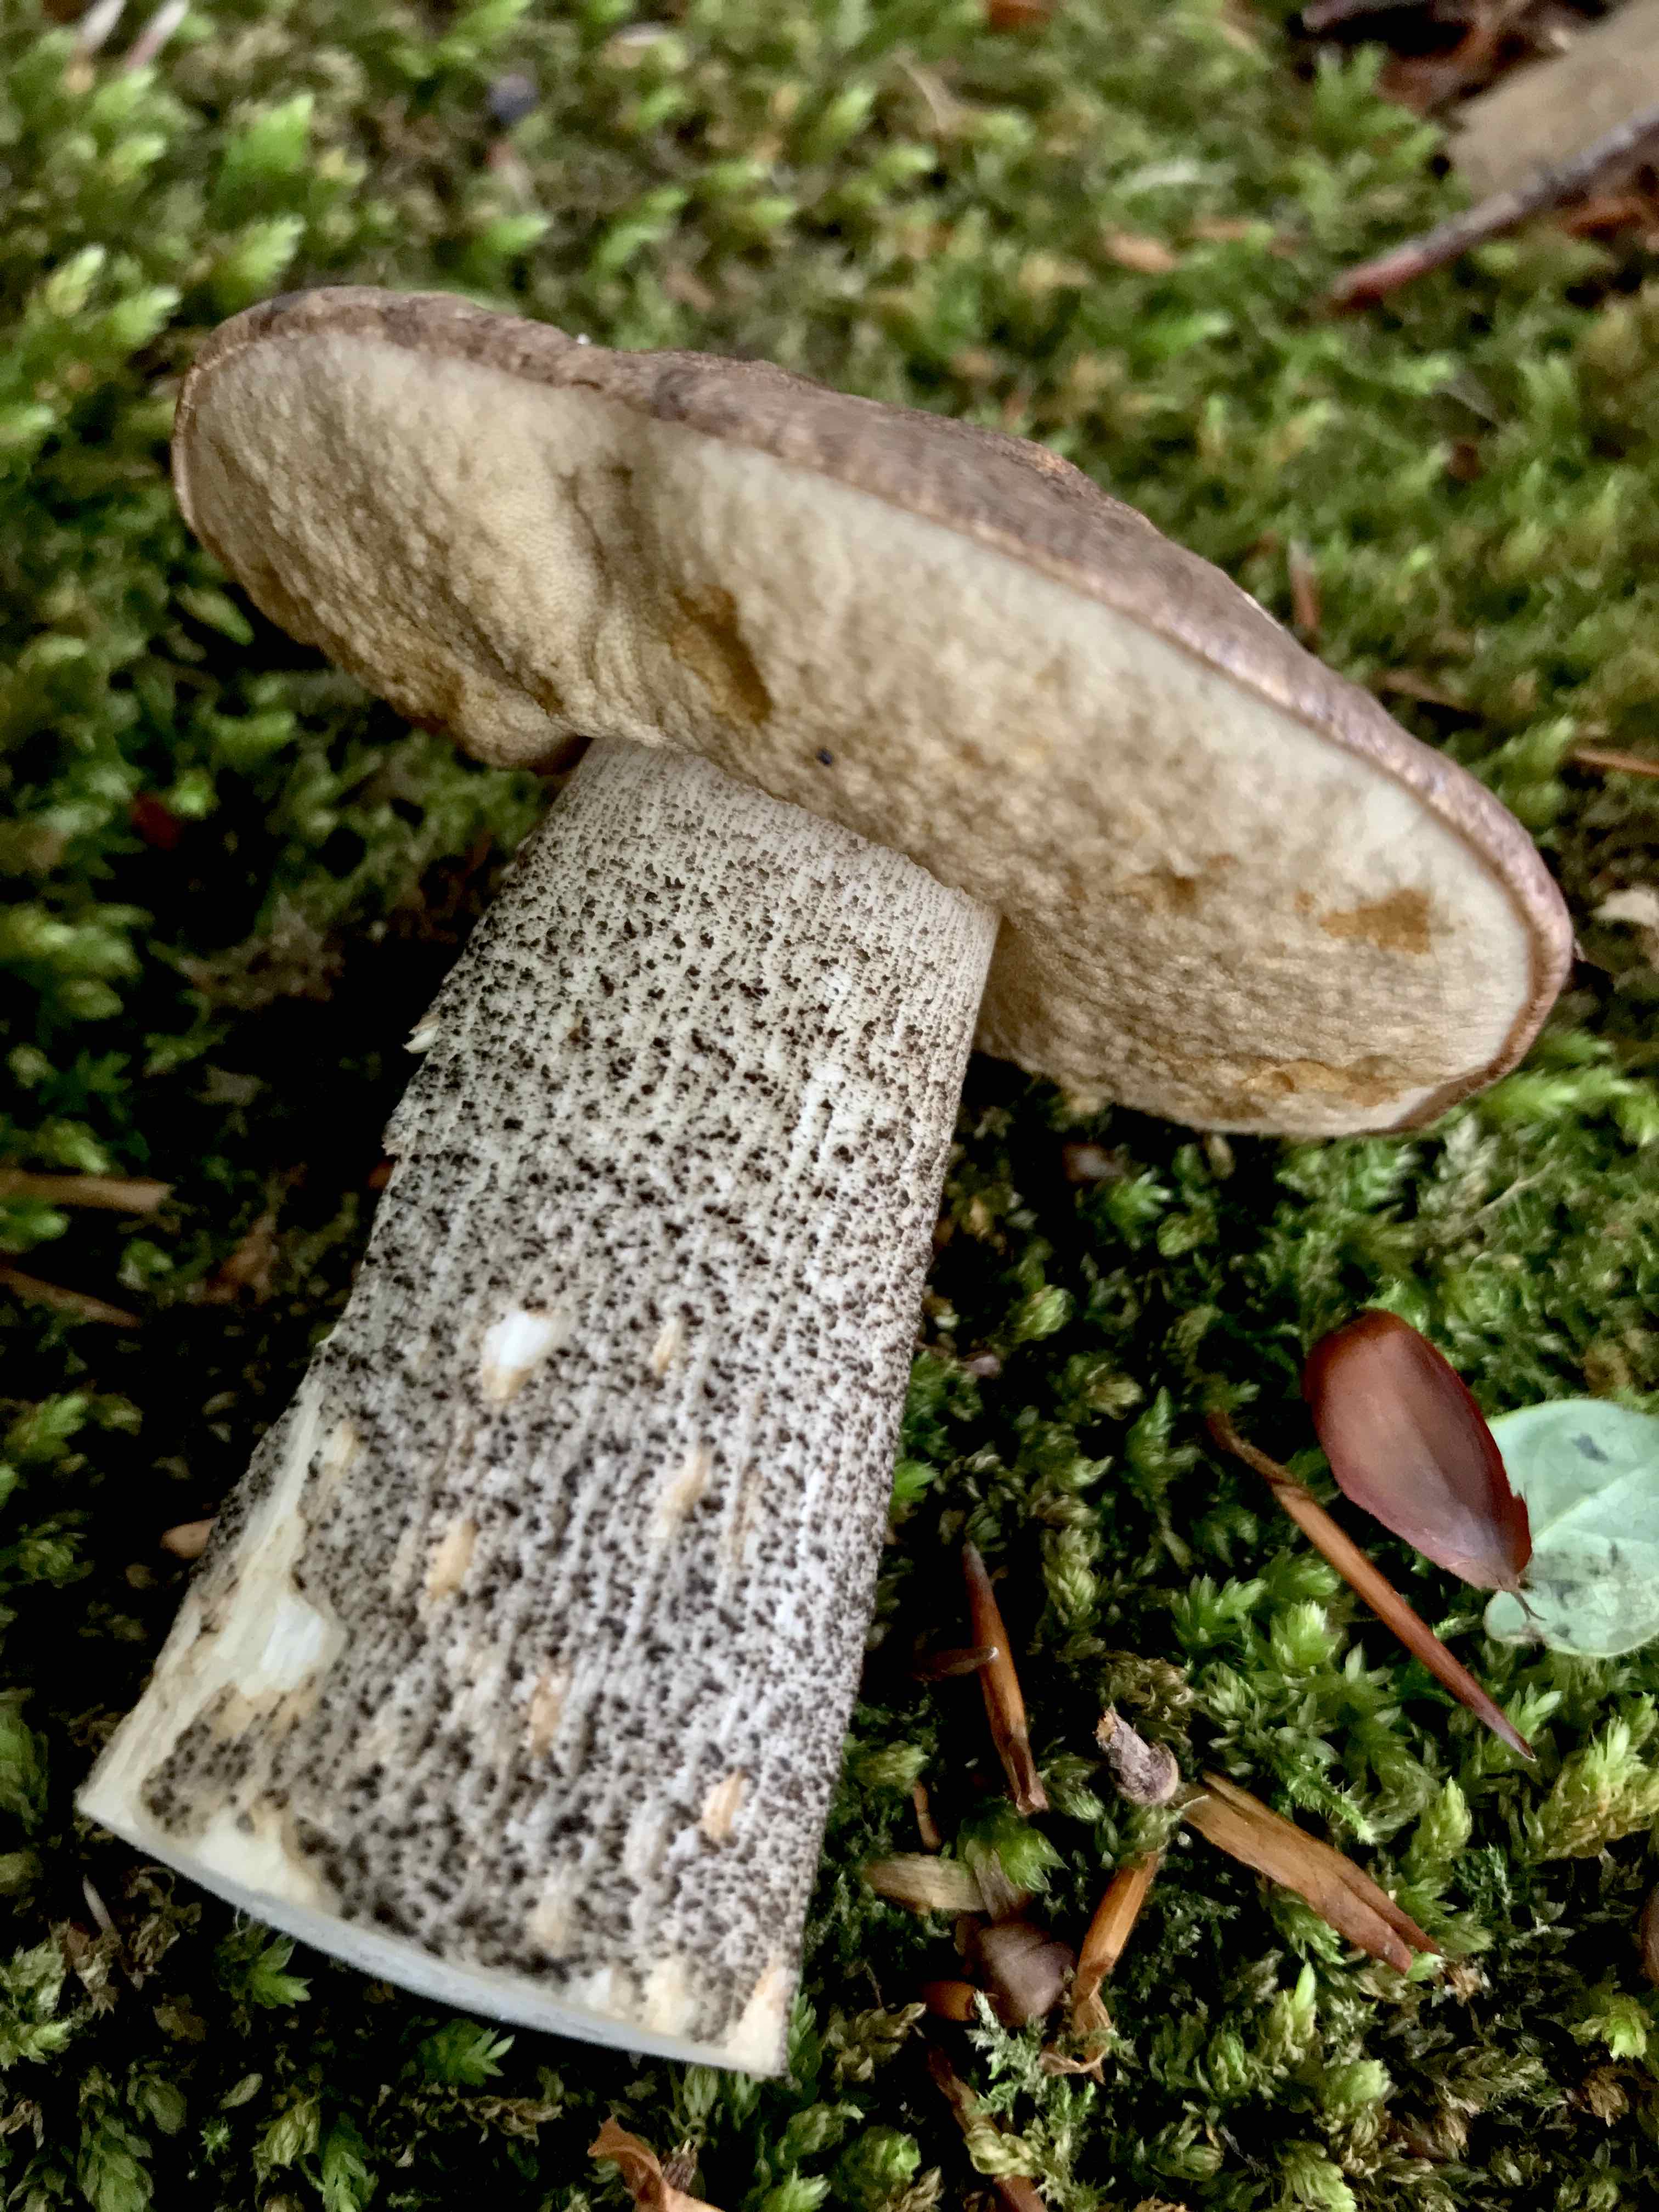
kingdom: Fungi
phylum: Basidiomycota
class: Agaricomycetes
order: Boletales
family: Boletaceae
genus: Leccinum
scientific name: Leccinum scabrum
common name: brun skælrørhat
